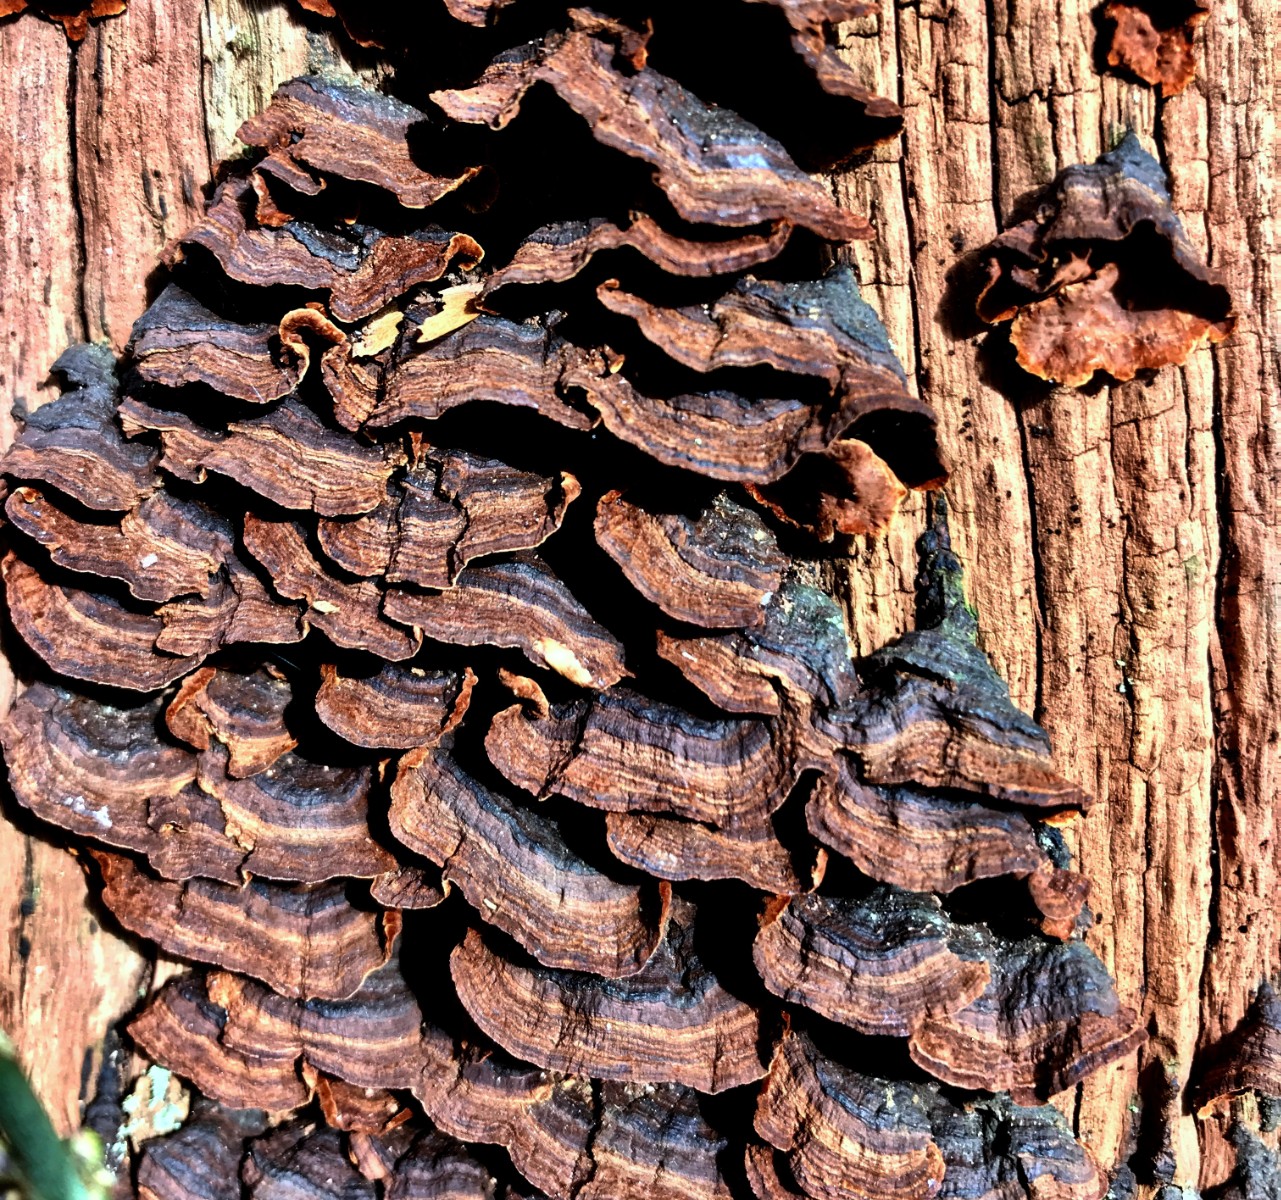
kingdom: Fungi
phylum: Basidiomycota
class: Agaricomycetes
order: Hymenochaetales
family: Hymenochaetaceae
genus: Hymenochaete
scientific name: Hymenochaete rubiginosa
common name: stiv ruslædersvamp
